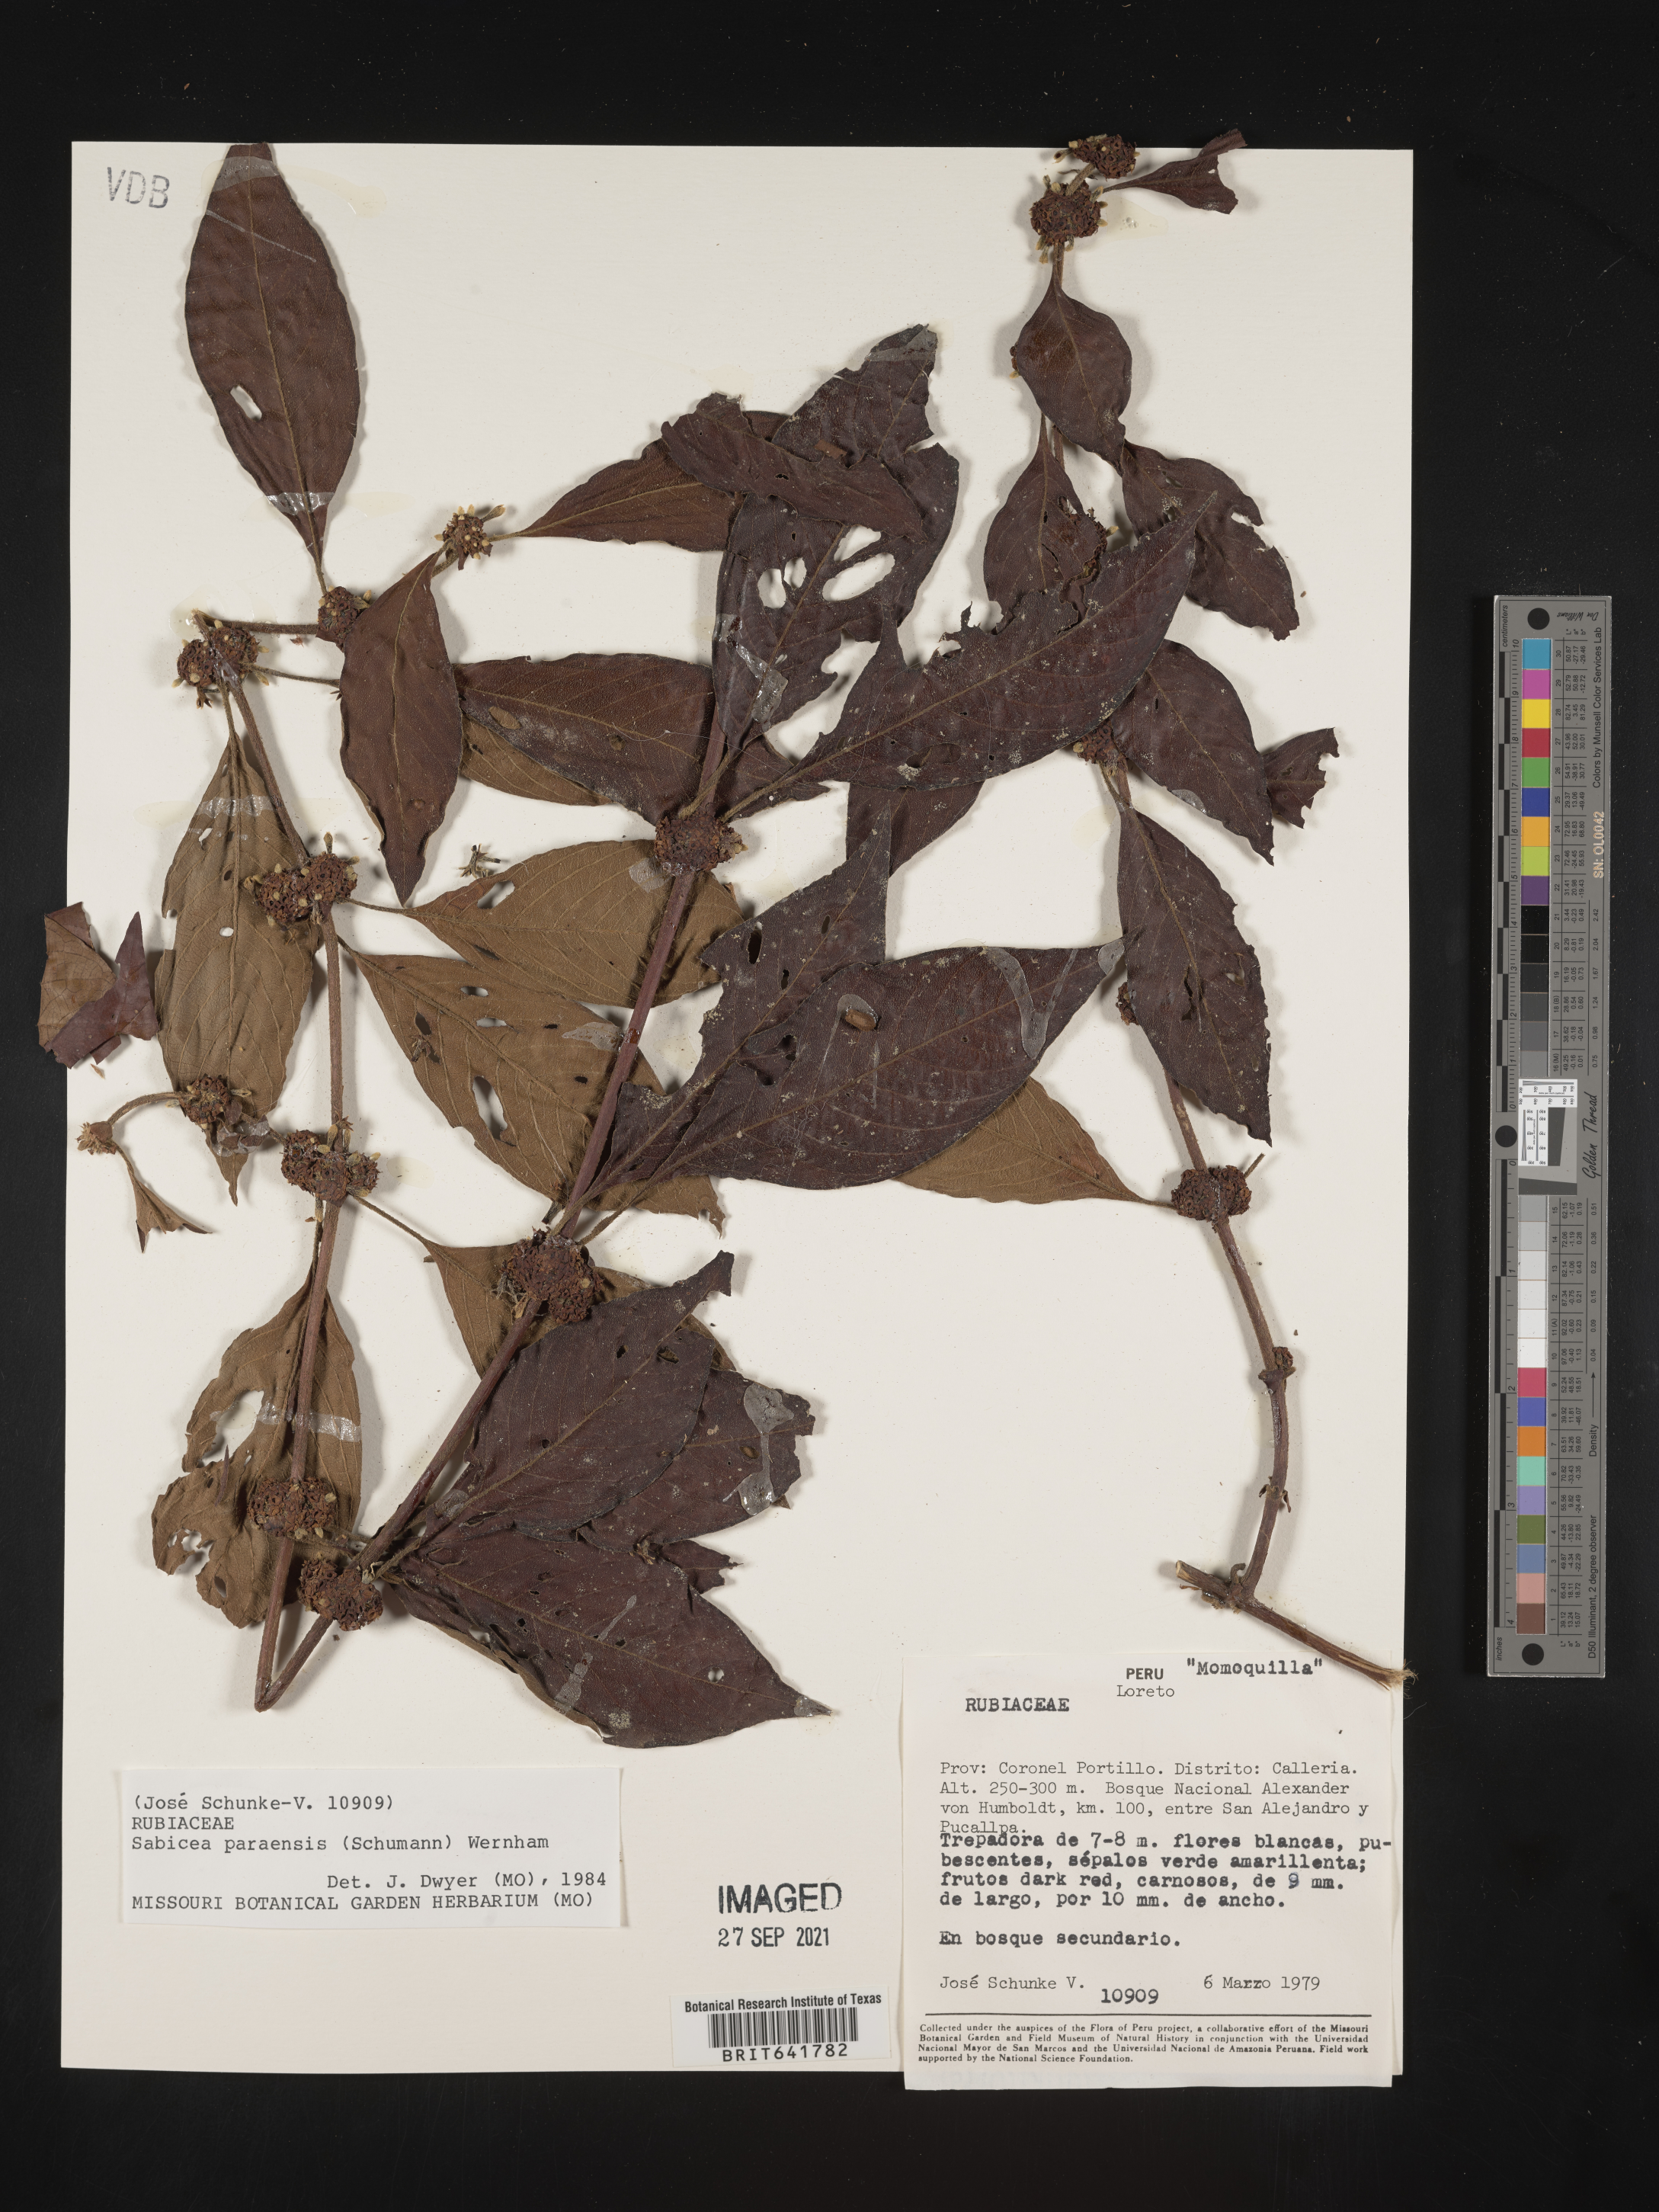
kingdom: Plantae
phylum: Tracheophyta
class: Magnoliopsida
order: Gentianales
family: Rubiaceae
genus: Sabicea
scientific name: Sabicea
